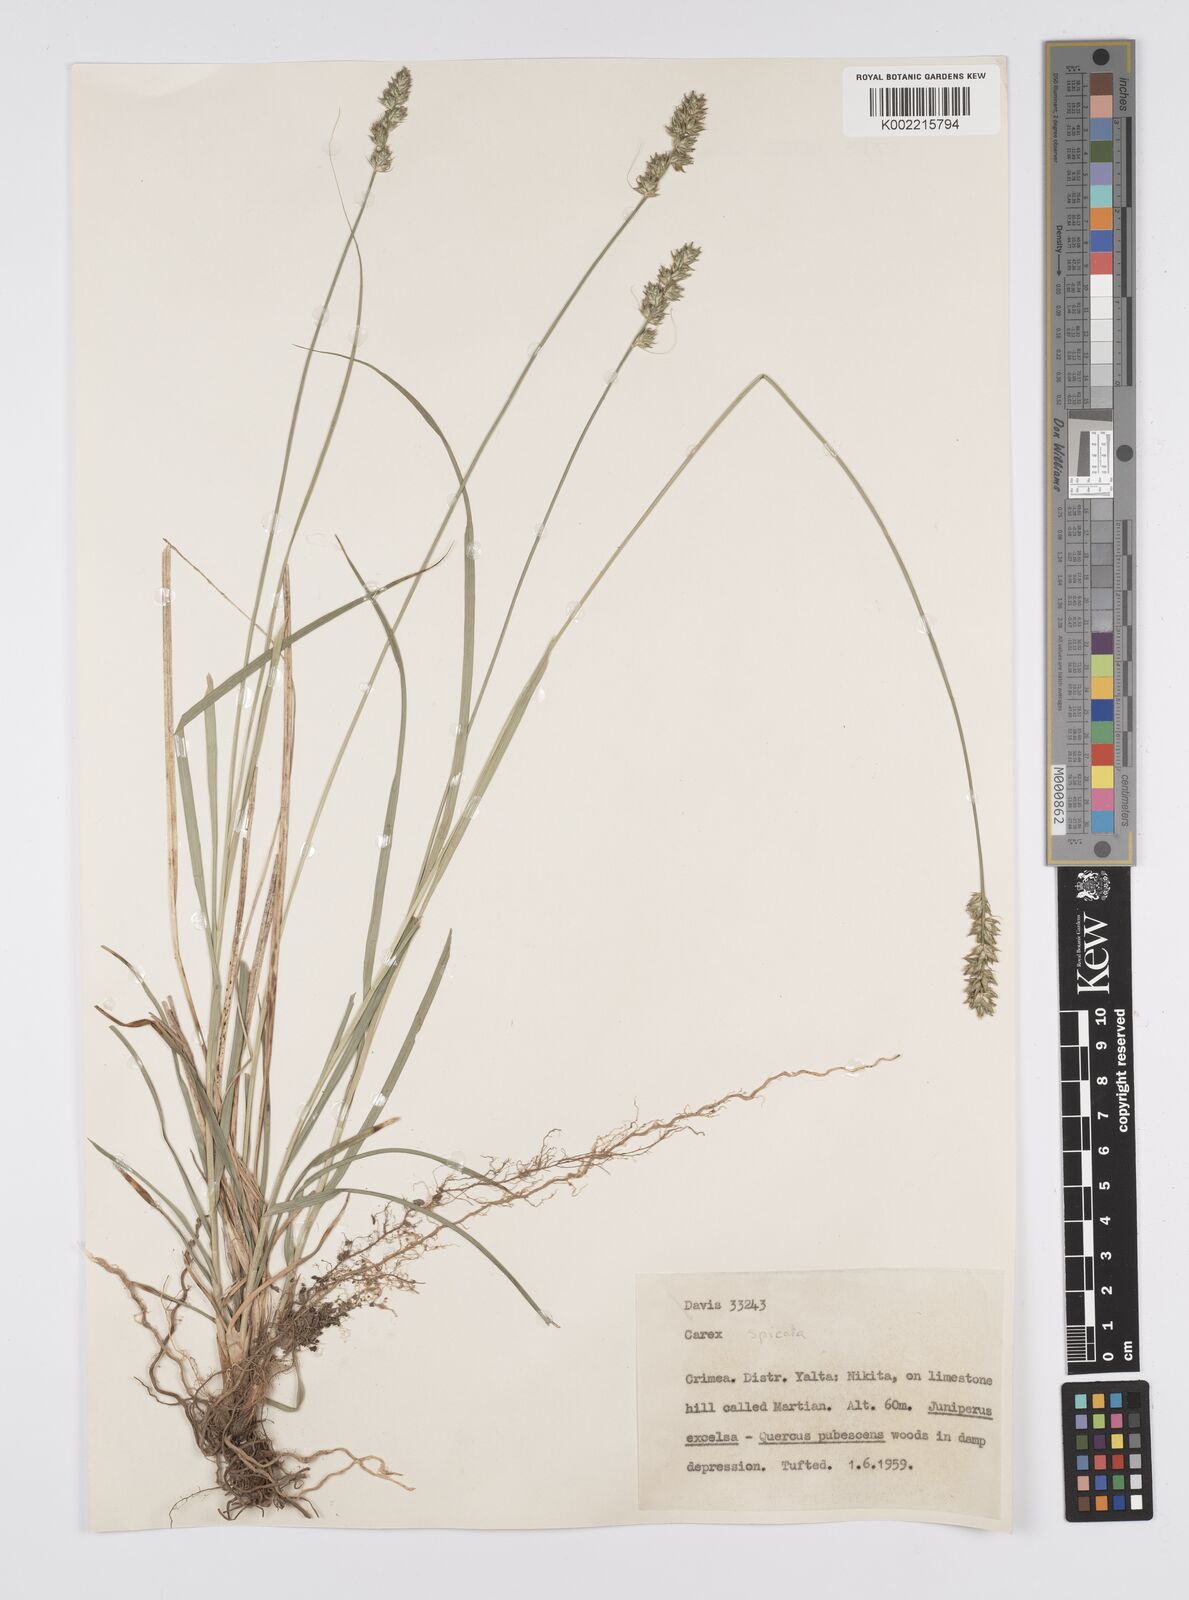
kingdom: Plantae
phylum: Tracheophyta
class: Liliopsida
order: Poales
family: Cyperaceae
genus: Carex
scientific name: Carex
